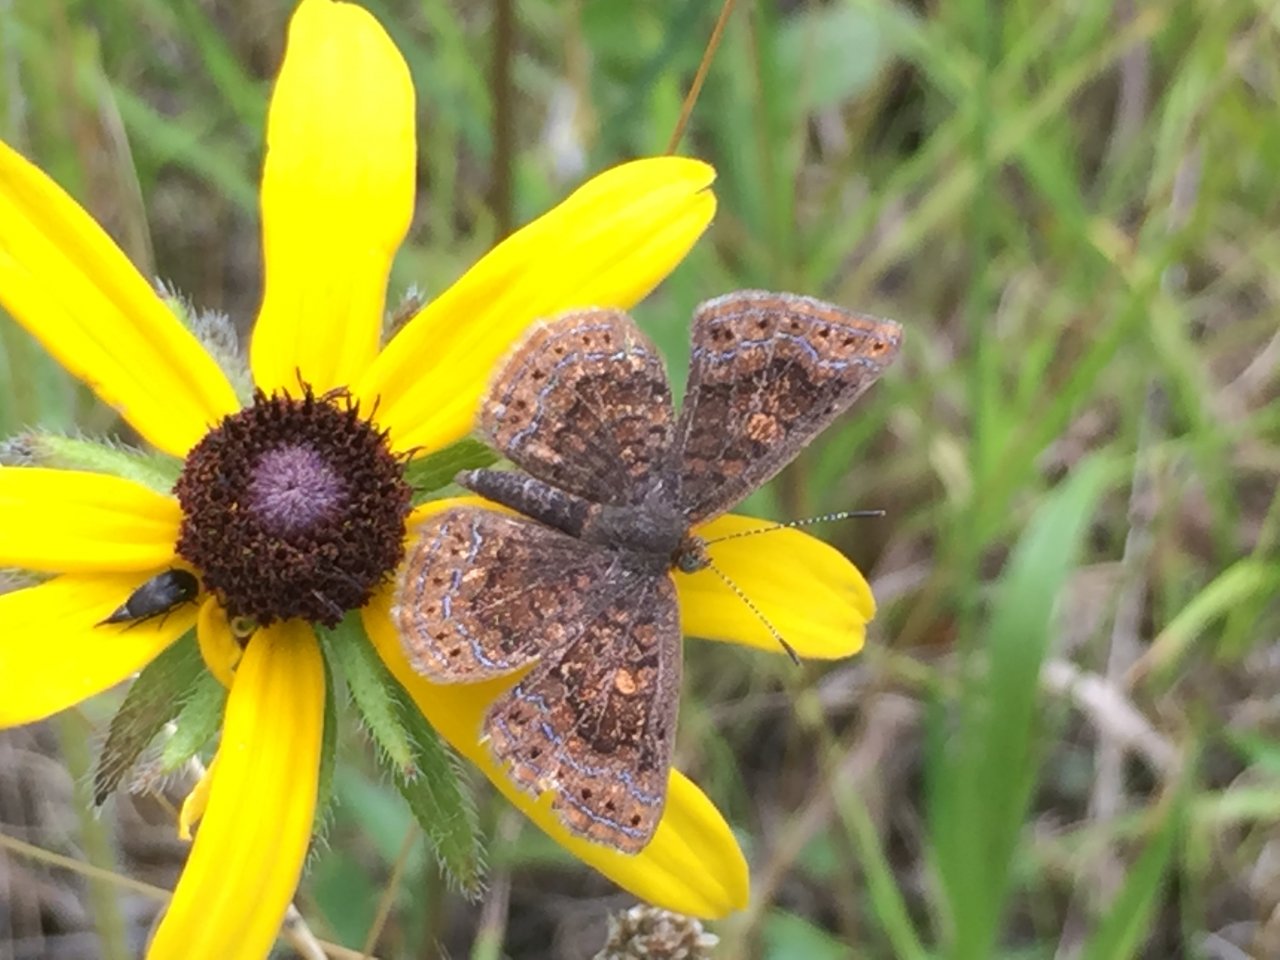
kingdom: Animalia
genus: Calephelis
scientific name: Calephelis borealis
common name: Northern Metalmark
